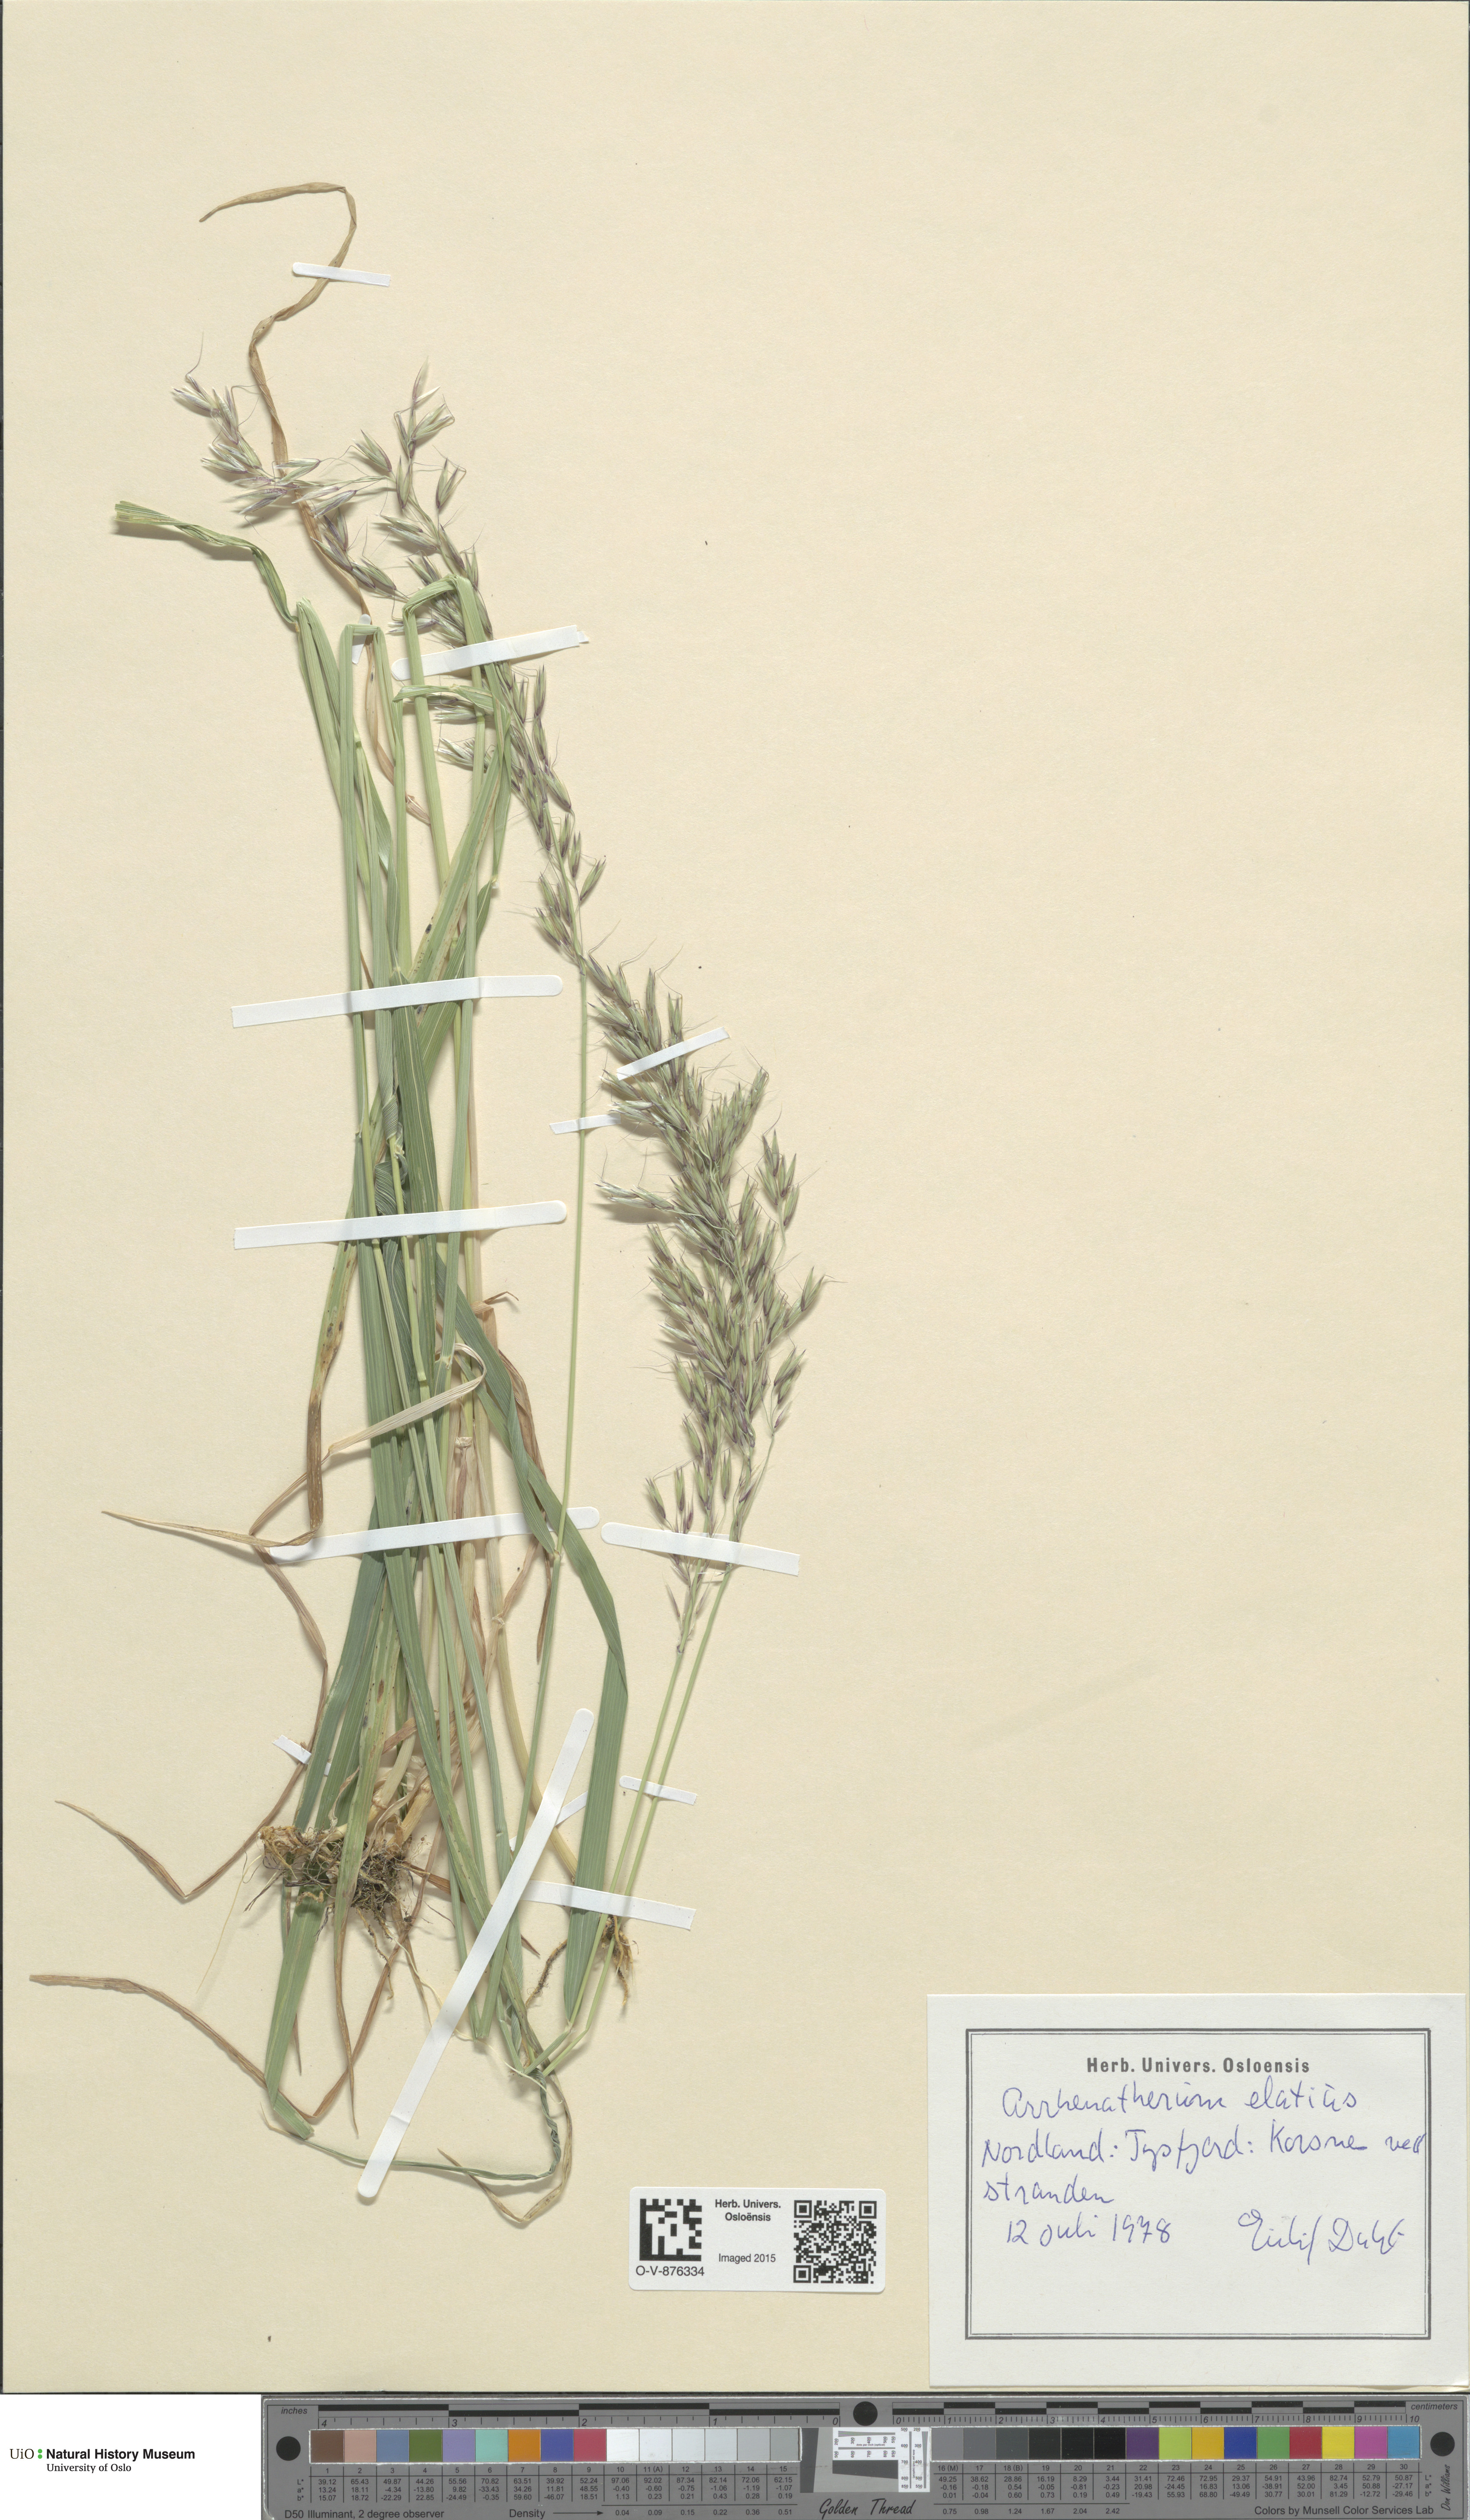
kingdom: Plantae
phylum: Tracheophyta
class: Liliopsida
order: Poales
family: Poaceae
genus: Arrhenatherum
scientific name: Arrhenatherum elatius
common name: Tall oatgrass
